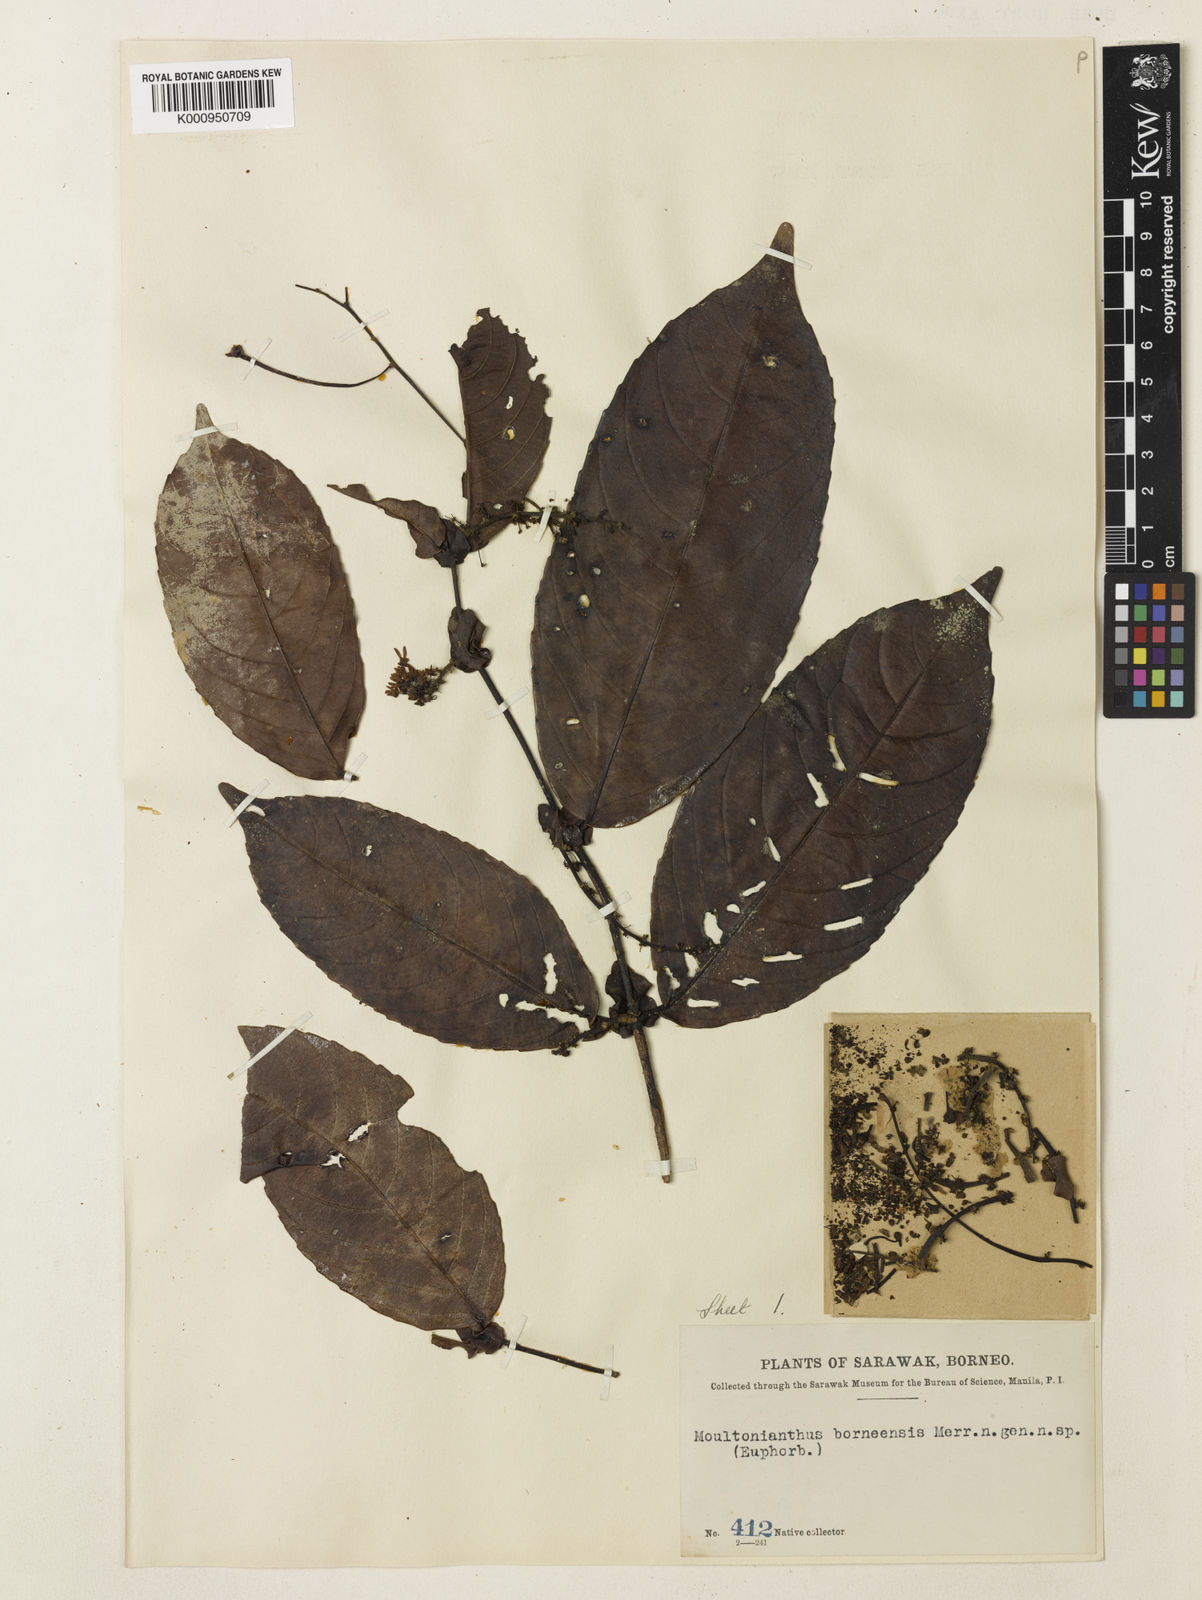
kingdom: Plantae
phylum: Tracheophyta
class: Magnoliopsida
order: Malpighiales
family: Euphorbiaceae
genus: Moultonianthus
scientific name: Moultonianthus leembruggianus
